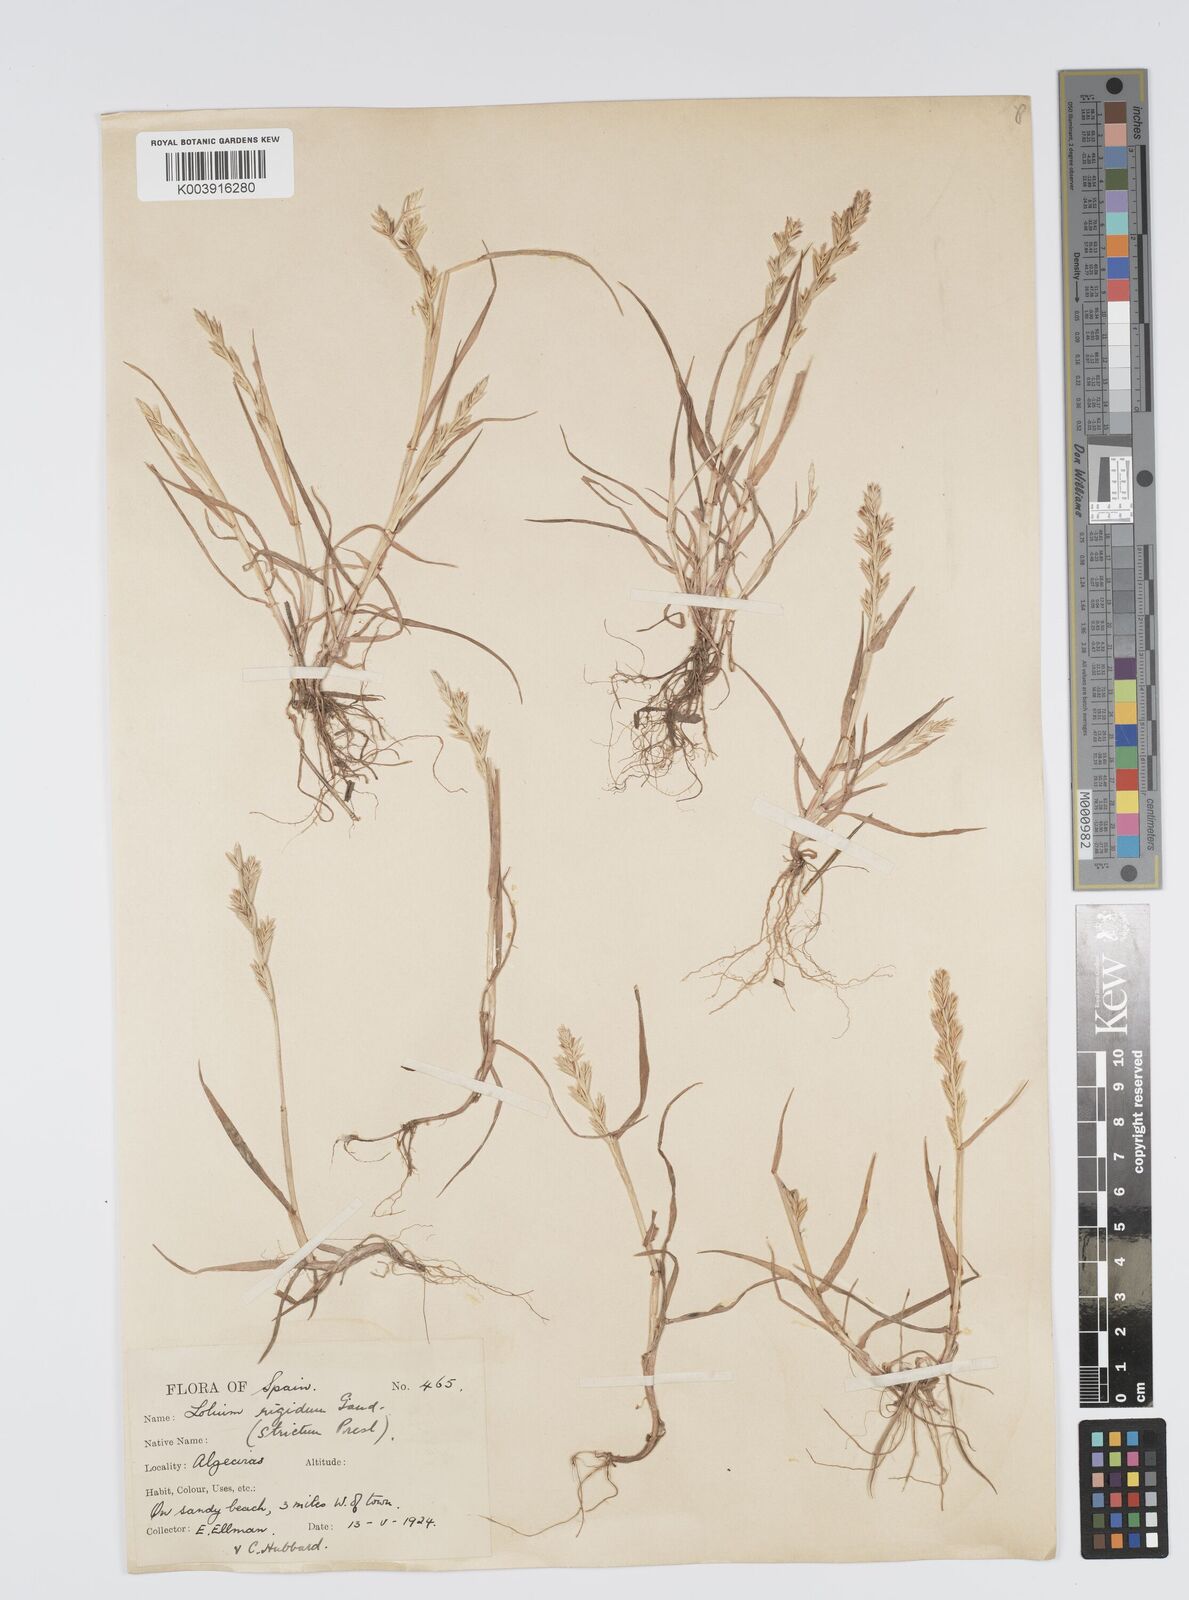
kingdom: Plantae
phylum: Tracheophyta
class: Liliopsida
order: Poales
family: Poaceae
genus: Lolium
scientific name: Lolium rigidum
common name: Wimmera ryegrass
